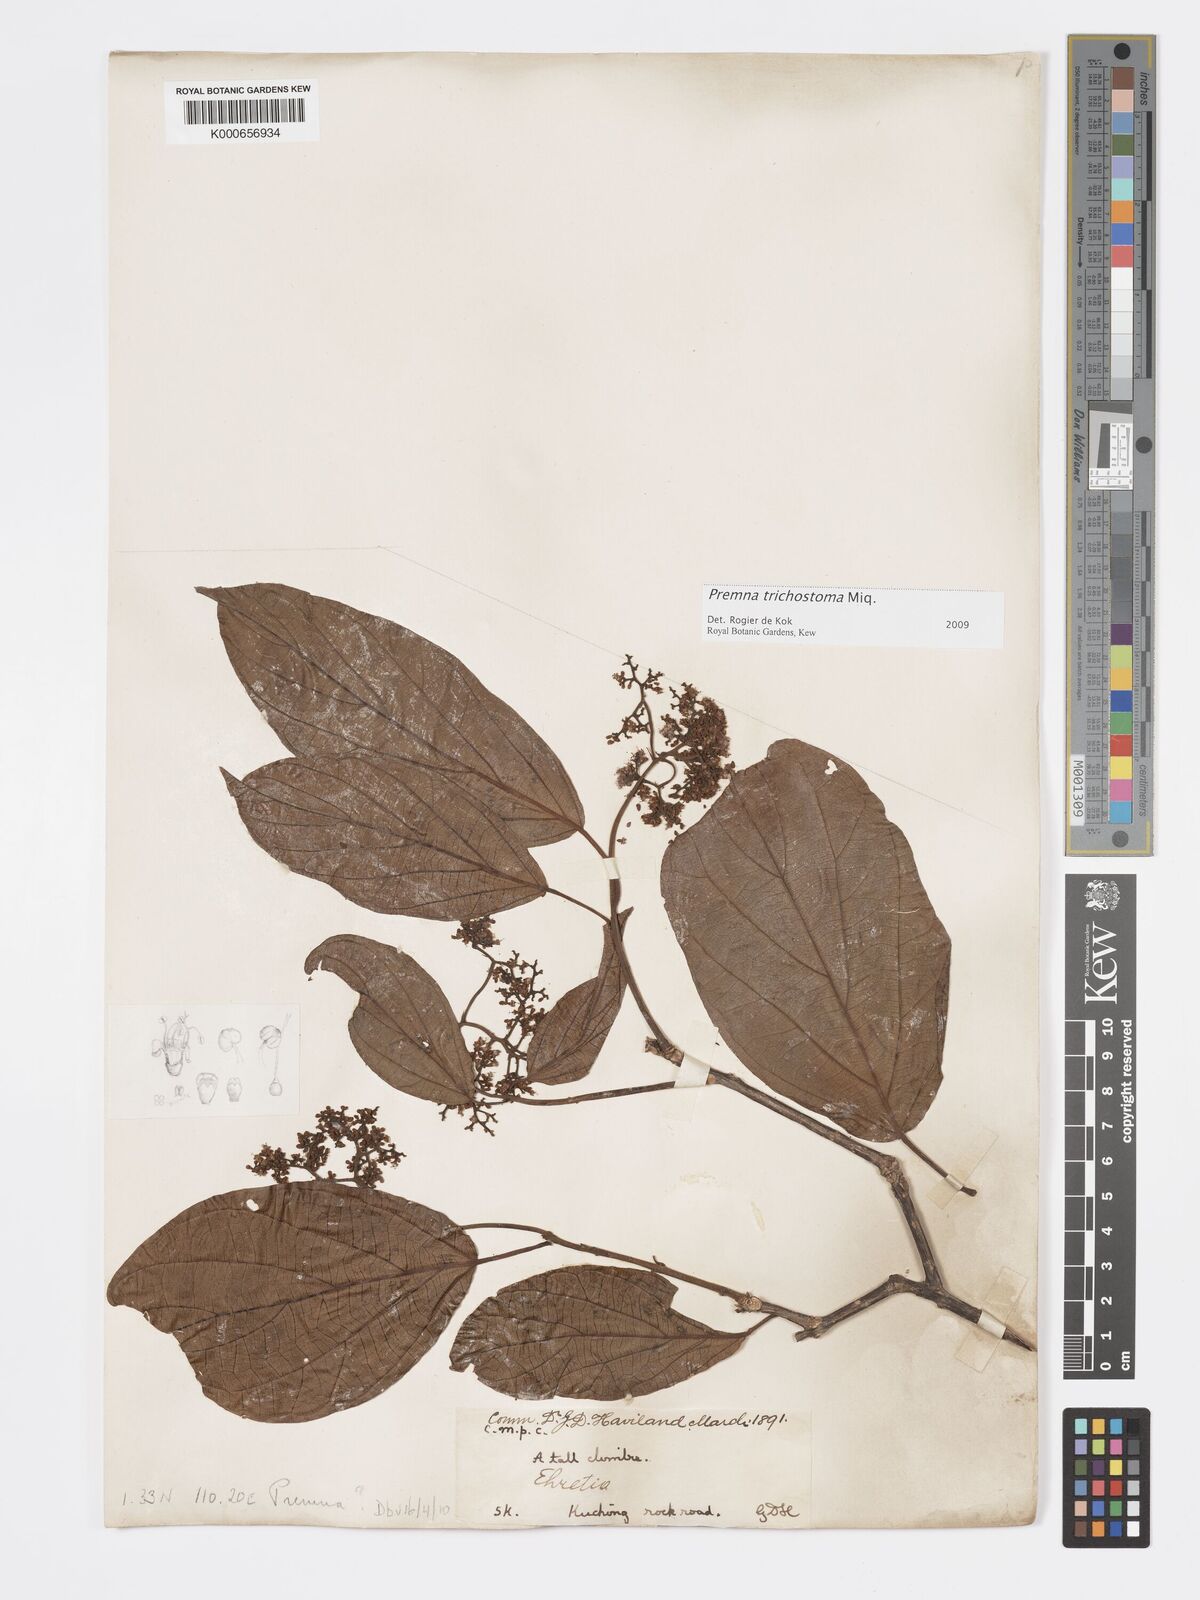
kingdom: Plantae
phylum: Tracheophyta
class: Magnoliopsida
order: Lamiales
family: Lamiaceae
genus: Premna
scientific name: Premna trichostoma
